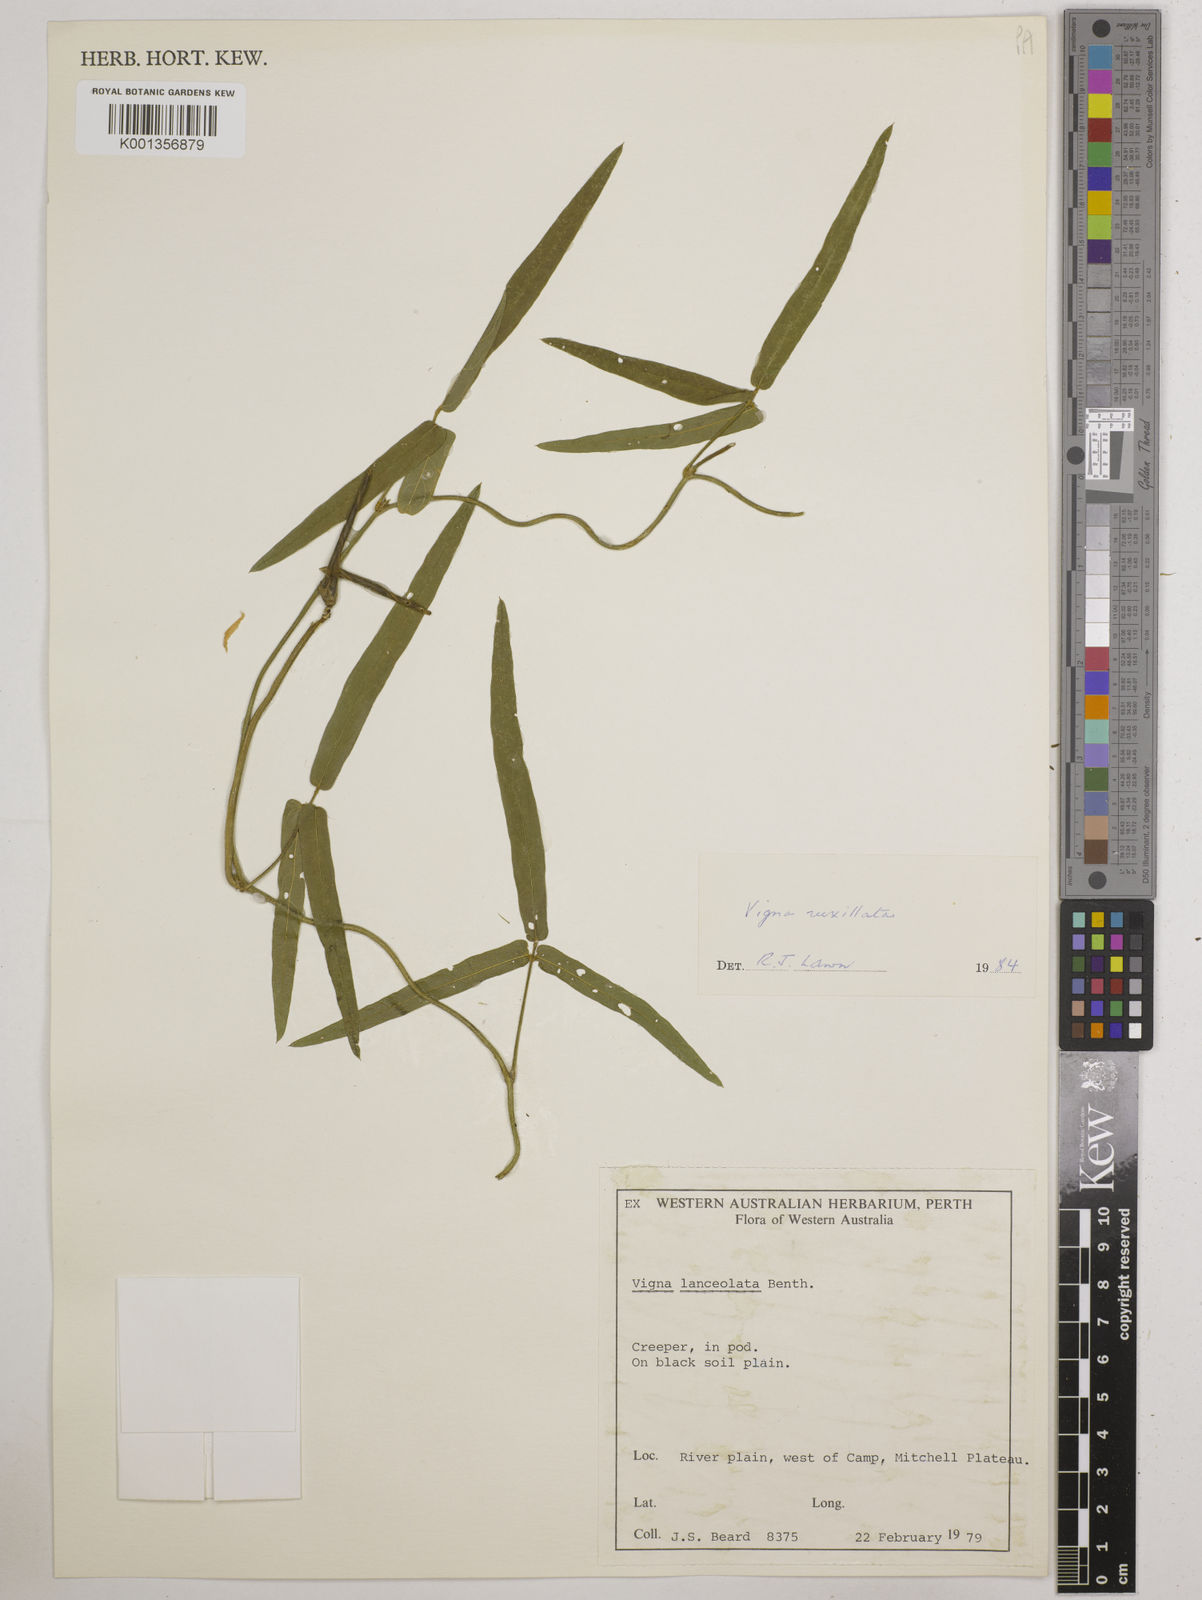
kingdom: Plantae
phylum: Tracheophyta
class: Magnoliopsida
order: Fabales
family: Fabaceae
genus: Vigna
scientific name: Vigna vexillata
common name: Zombi pea
